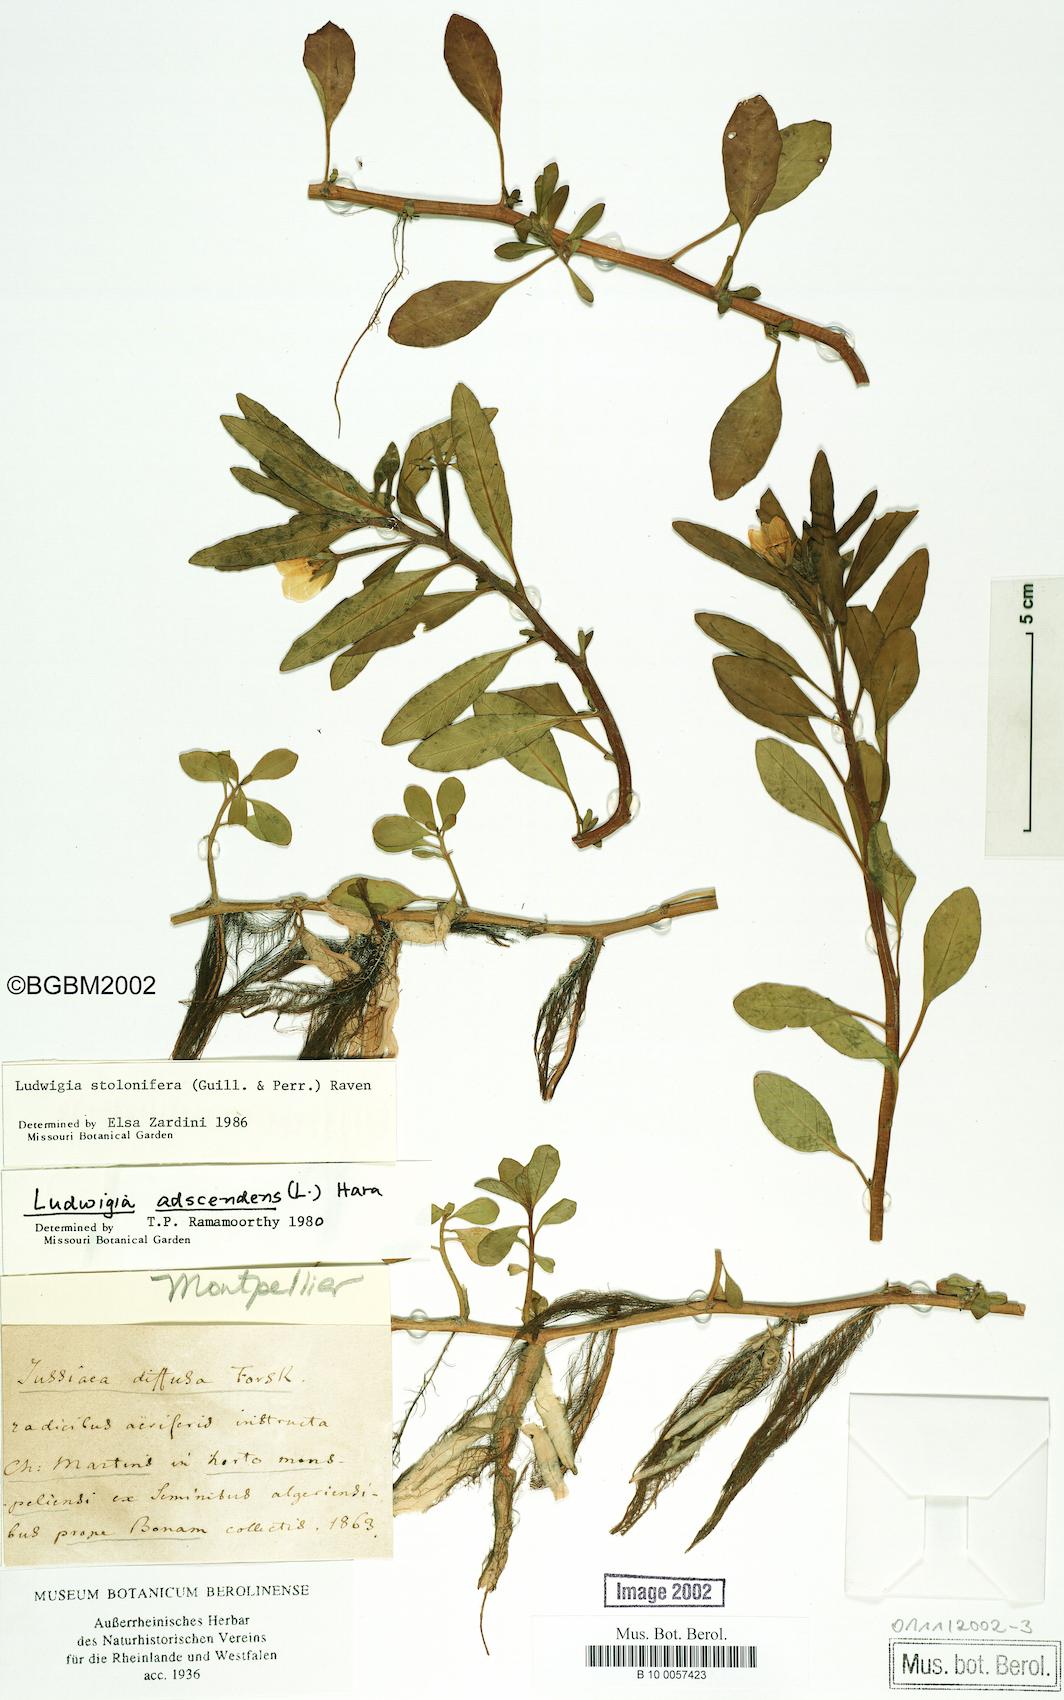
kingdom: Plantae
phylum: Tracheophyta
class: Magnoliopsida
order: Myrtales
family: Onagraceae
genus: Ludwigia
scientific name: Ludwigia adscendens
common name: Creeping water primrose
